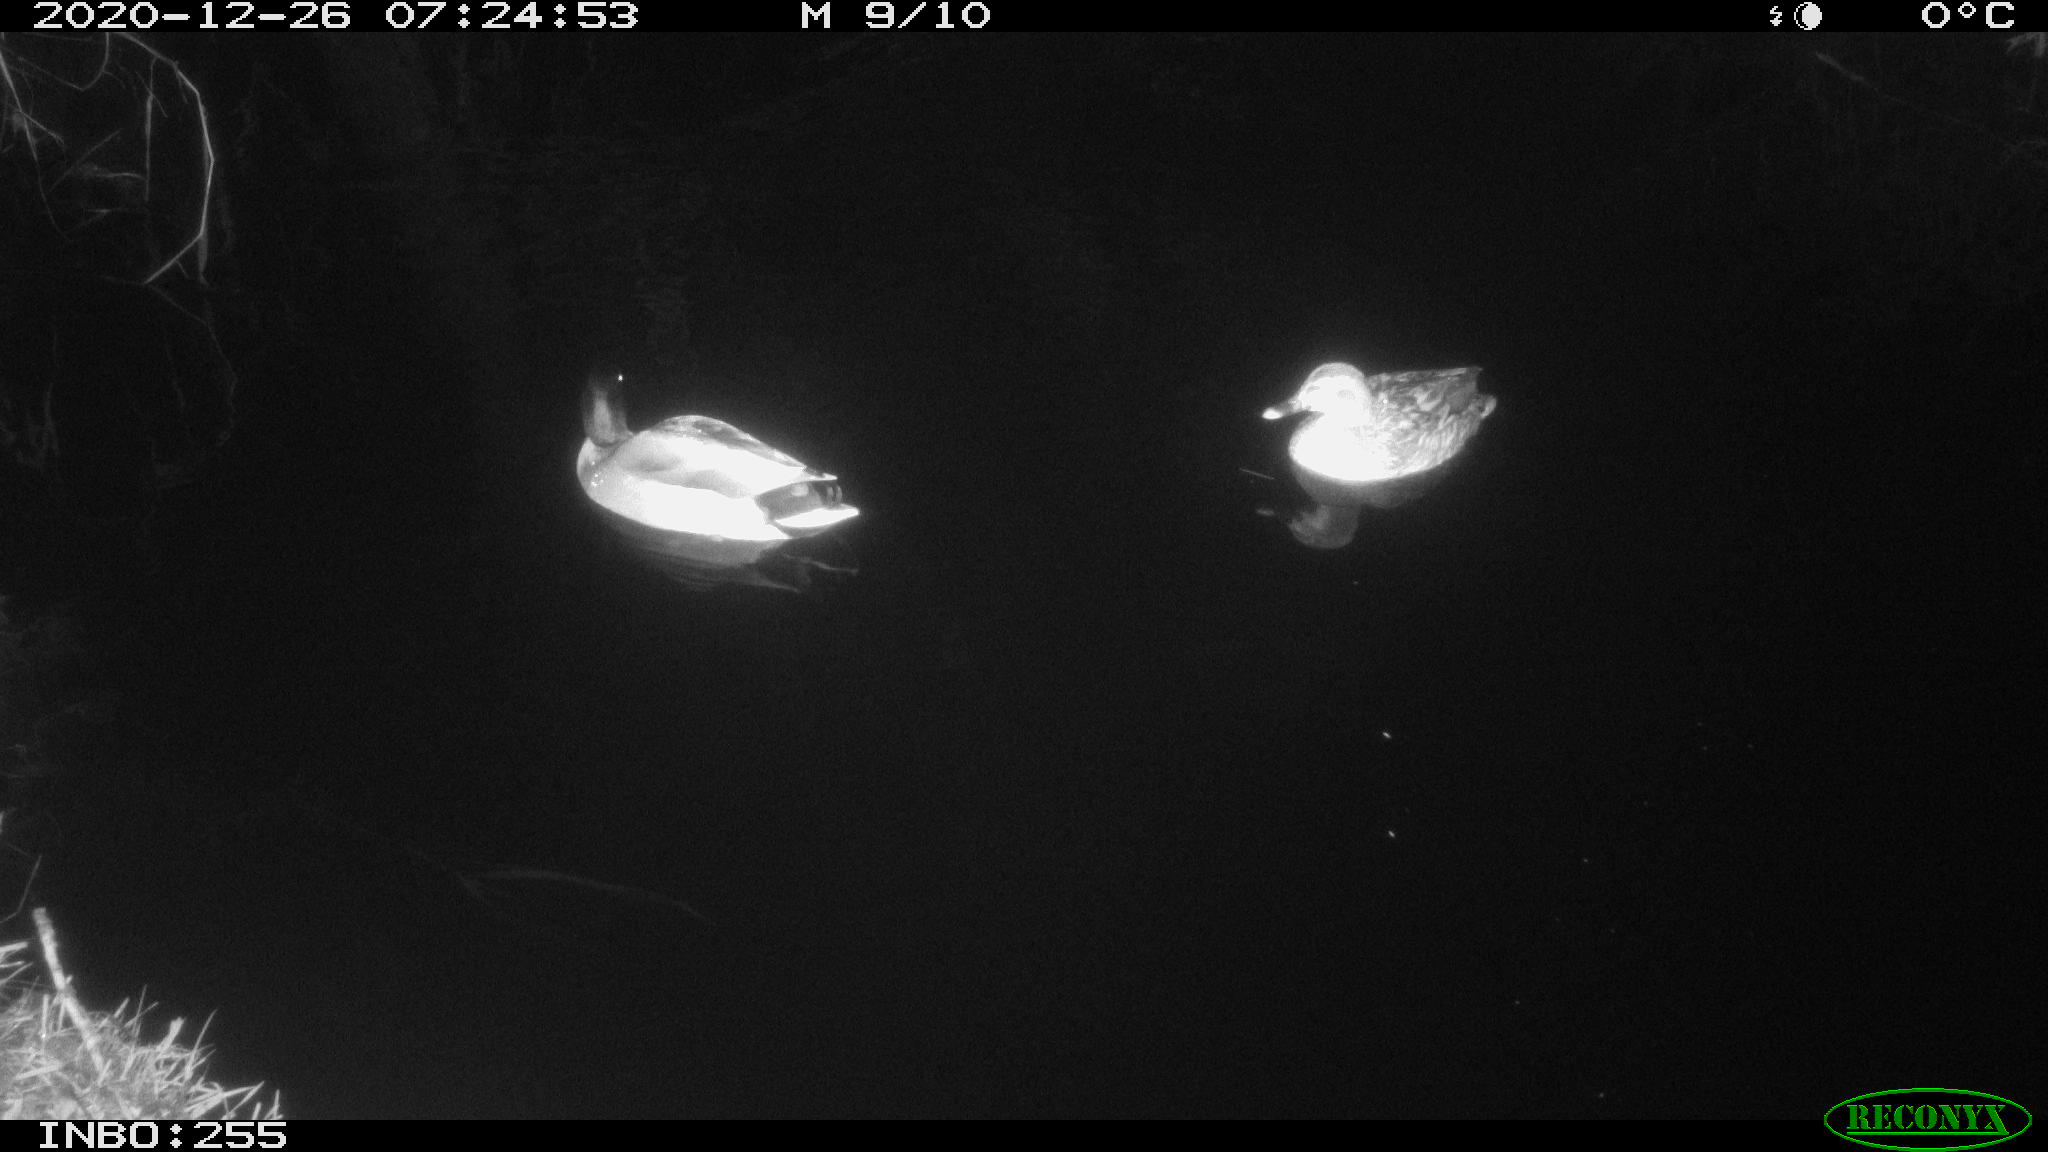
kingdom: Animalia
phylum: Chordata
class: Aves
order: Anseriformes
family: Anatidae
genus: Anas
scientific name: Anas platyrhynchos
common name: Mallard
